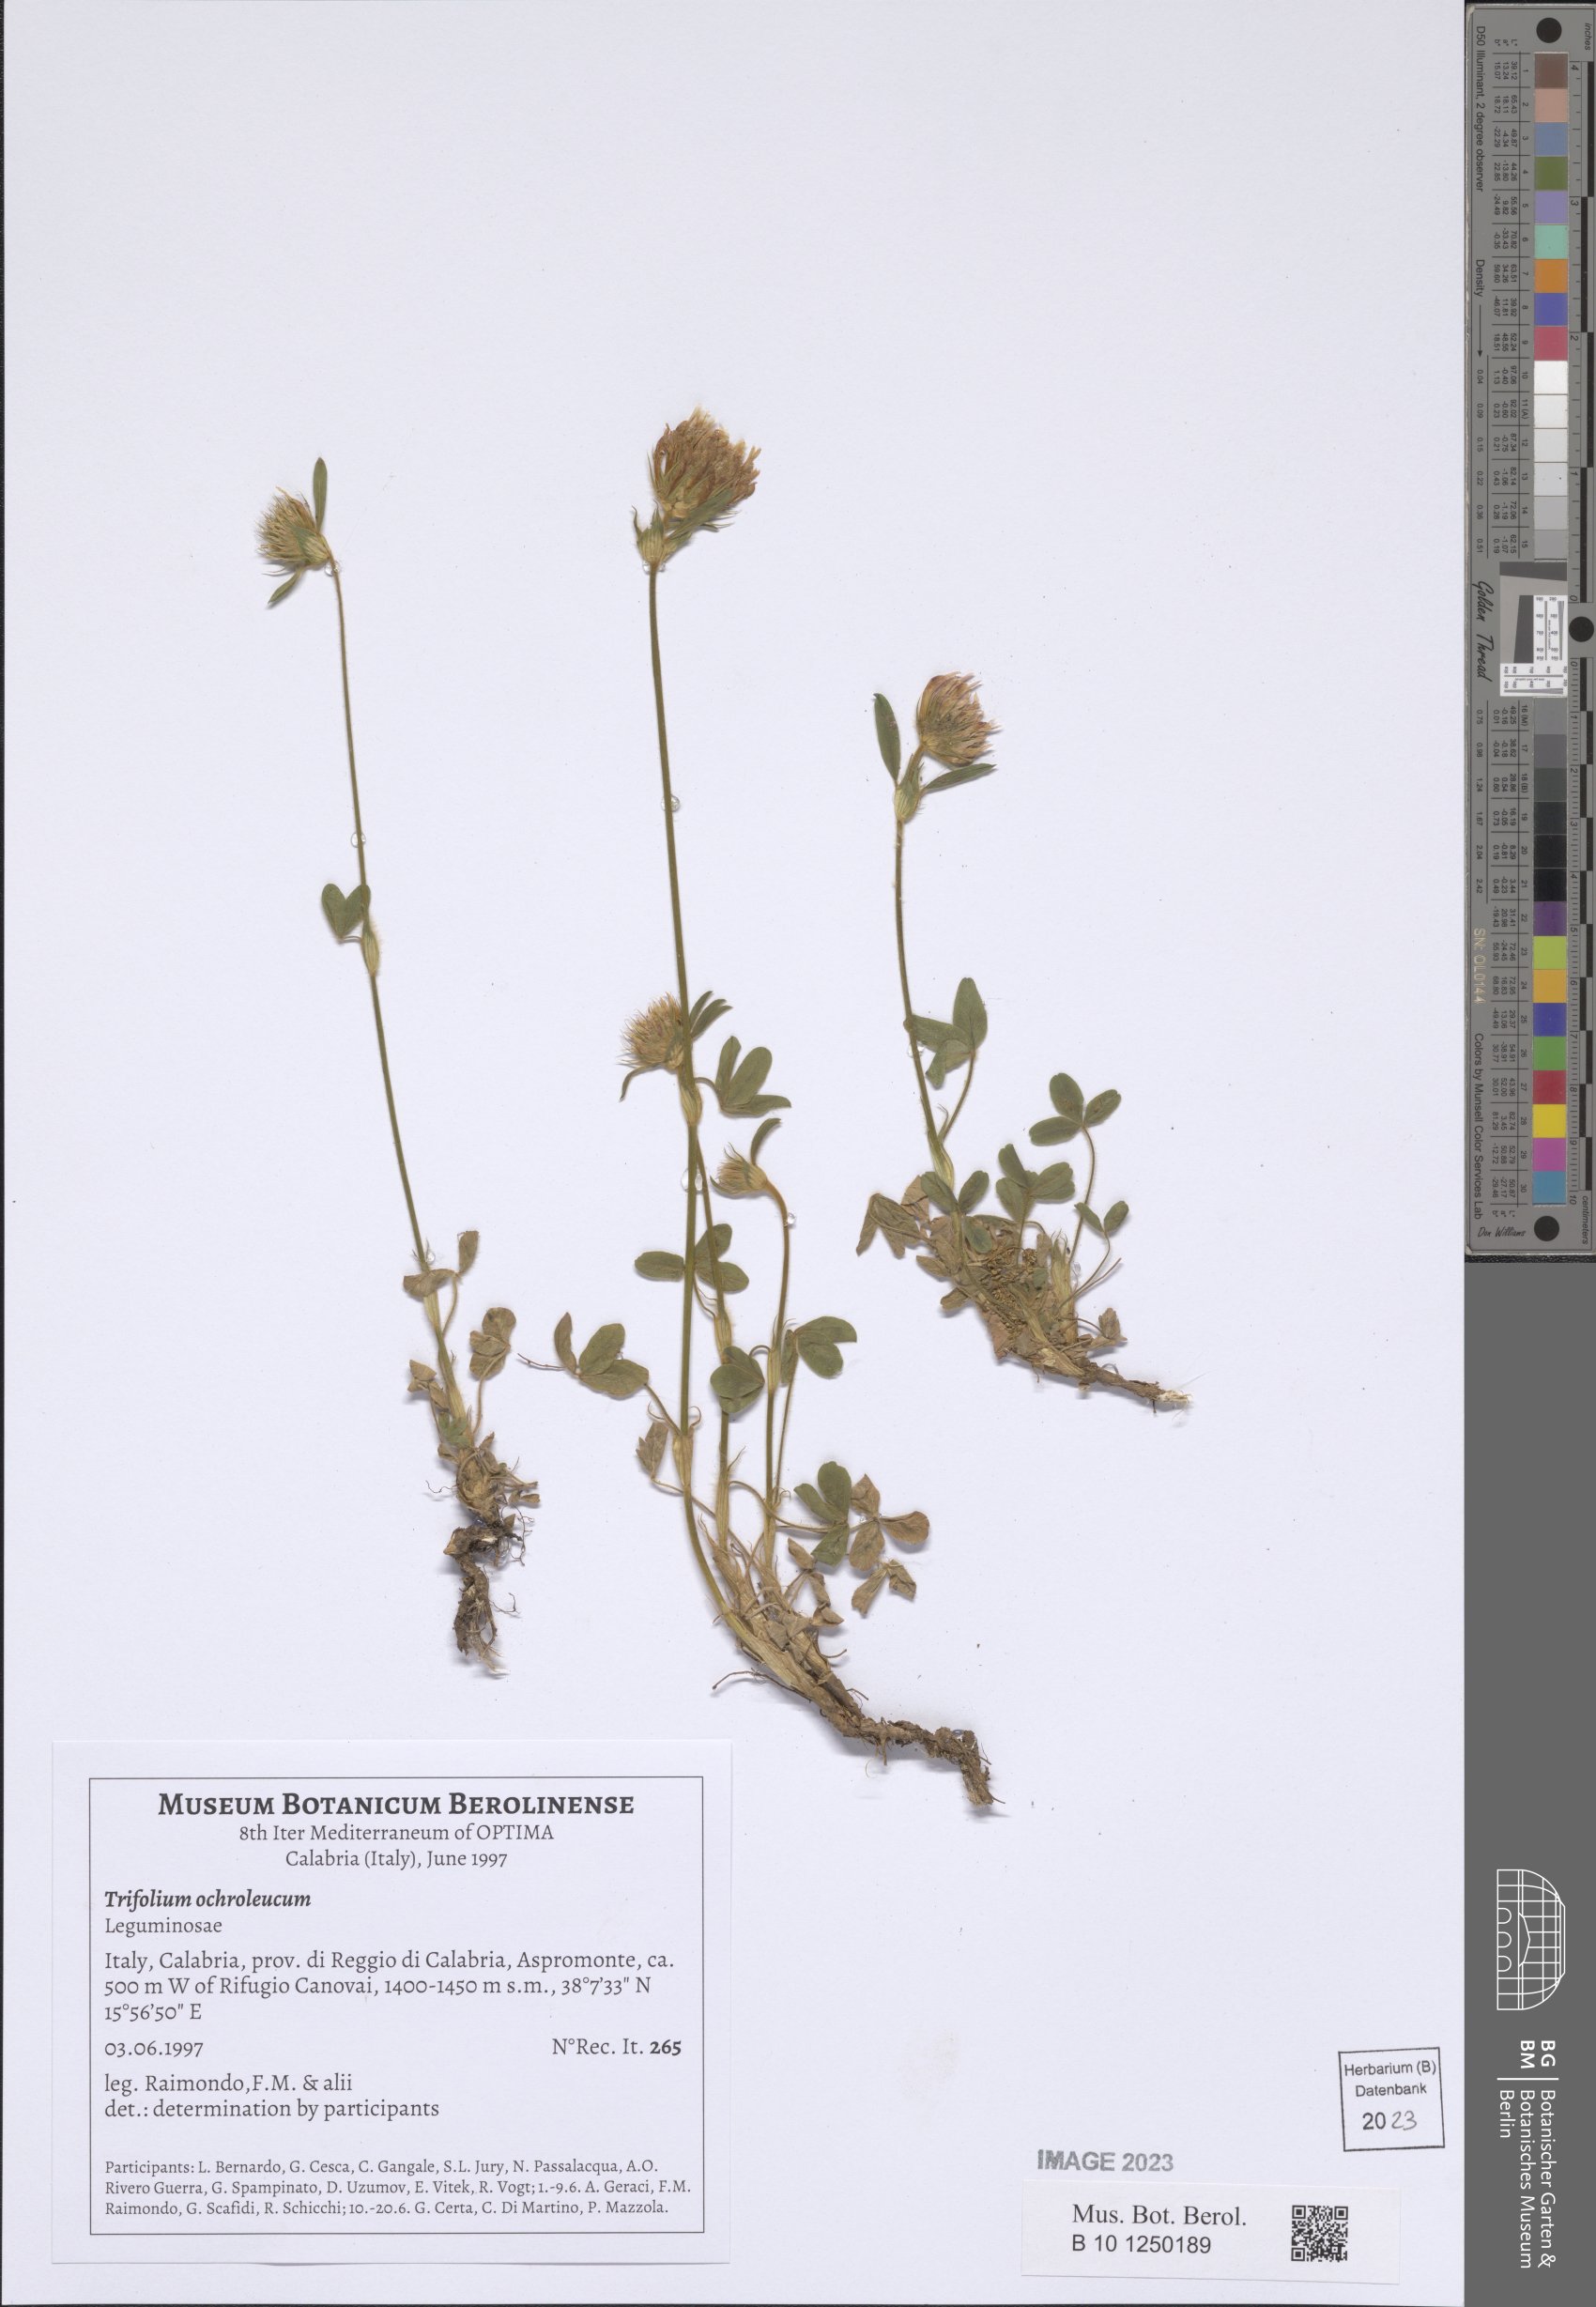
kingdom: Plantae
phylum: Tracheophyta
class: Magnoliopsida
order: Fabales
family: Fabaceae
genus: Trifolium
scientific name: Trifolium ochroleucon
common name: Sulphur clover
